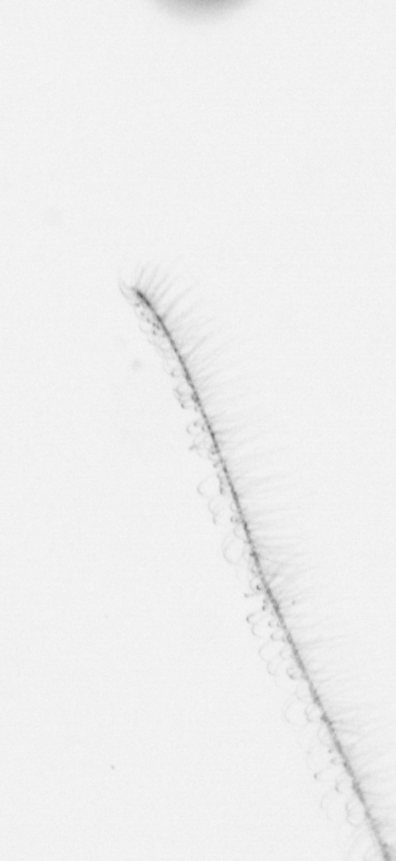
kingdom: Chromista
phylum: Ochrophyta
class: Bacillariophyceae
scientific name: Bacillariophyceae
